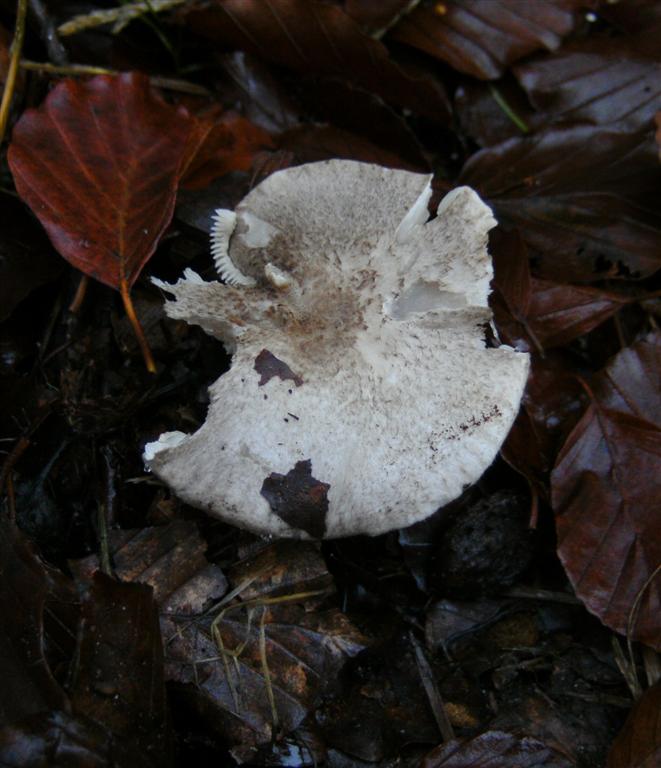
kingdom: Fungi
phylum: Basidiomycota
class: Agaricomycetes
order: Agaricales
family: Tricholomataceae
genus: Tricholoma
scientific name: Tricholoma scalpturatum
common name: gulplettet ridderhat
